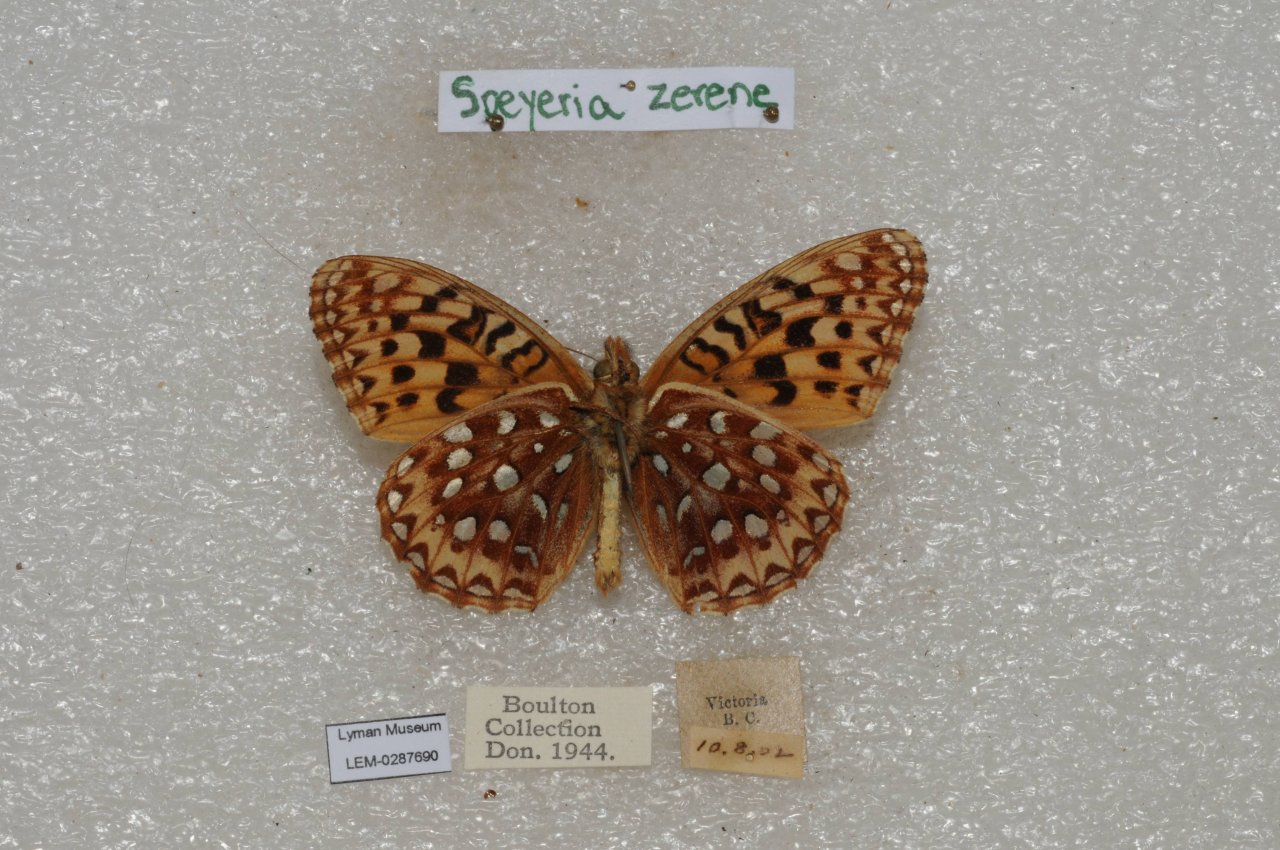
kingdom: Animalia
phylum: Arthropoda
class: Insecta
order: Lepidoptera
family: Nymphalidae
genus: Speyeria
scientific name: Speyeria zerene
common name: Zerene Fritillary
